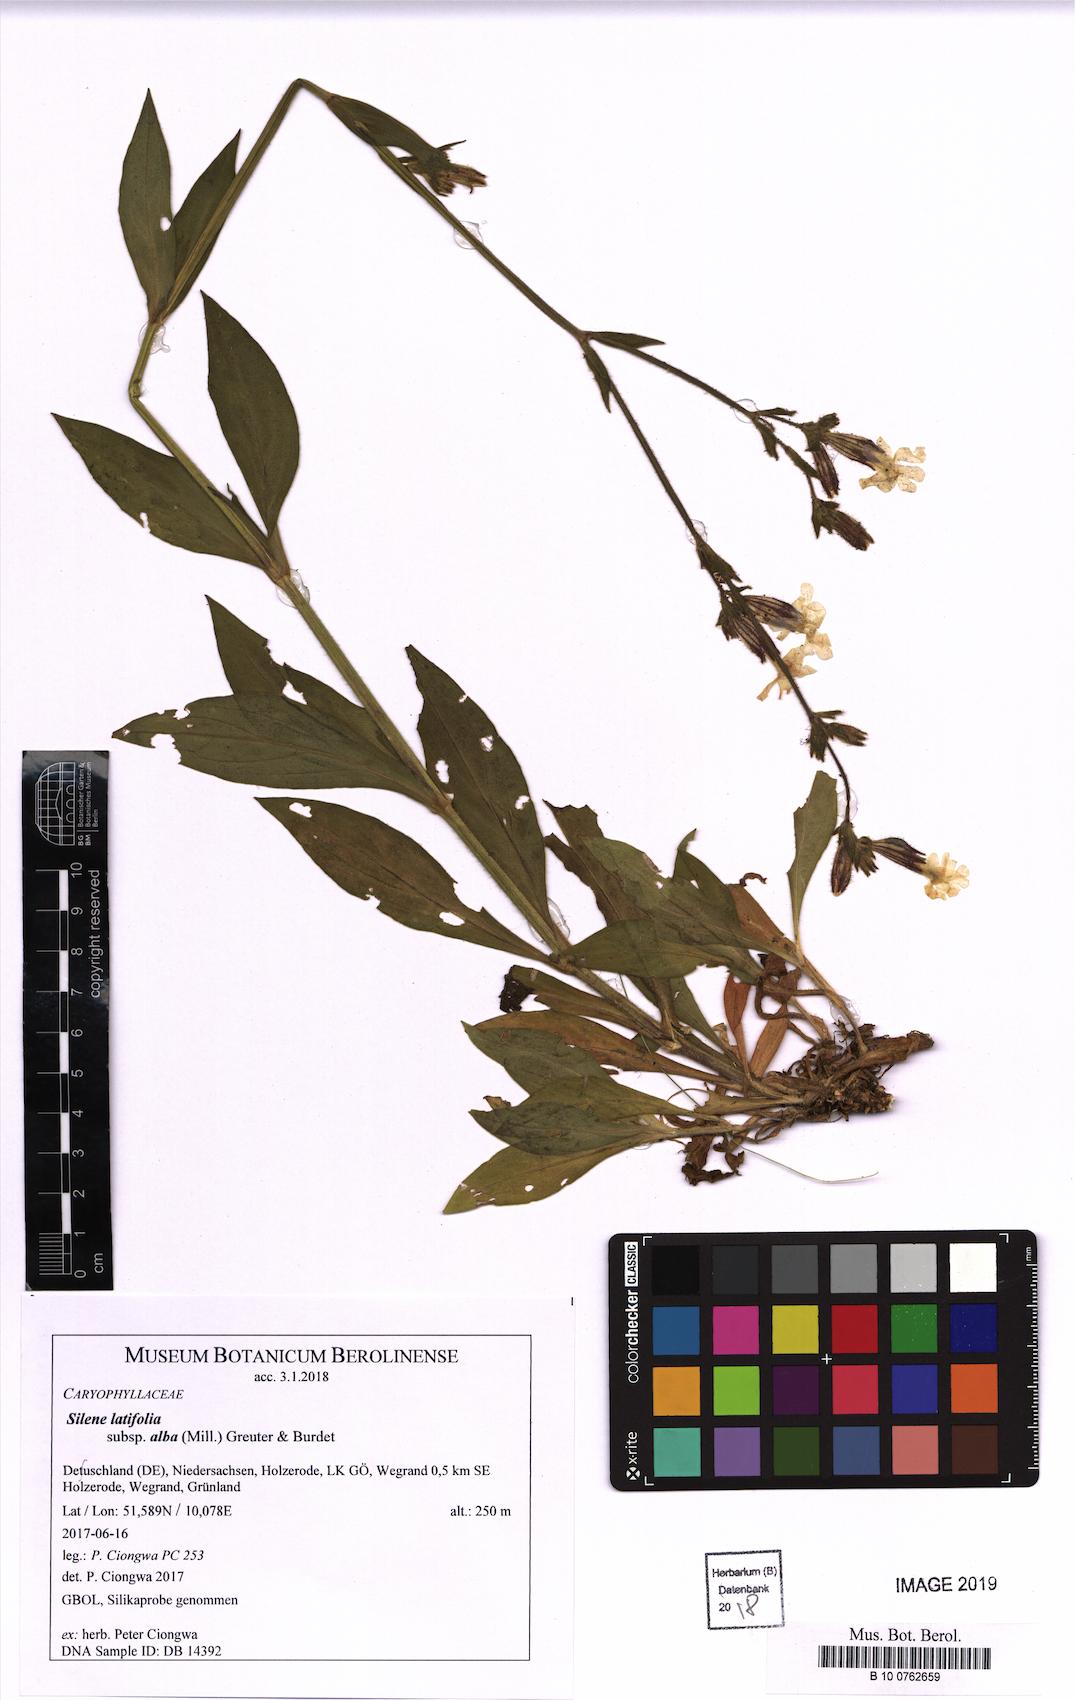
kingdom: Plantae
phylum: Tracheophyta
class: Magnoliopsida
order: Caryophyllales
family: Caryophyllaceae
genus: Silene
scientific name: Silene latifolia
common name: White campion
